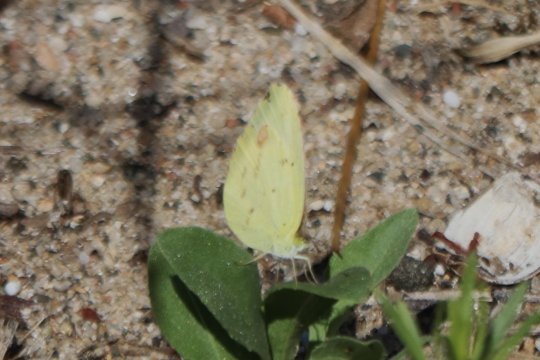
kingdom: Animalia
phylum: Arthropoda
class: Insecta
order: Lepidoptera
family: Pieridae
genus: Pyrisitia
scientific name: Pyrisitia lisa
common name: Little Yellow
